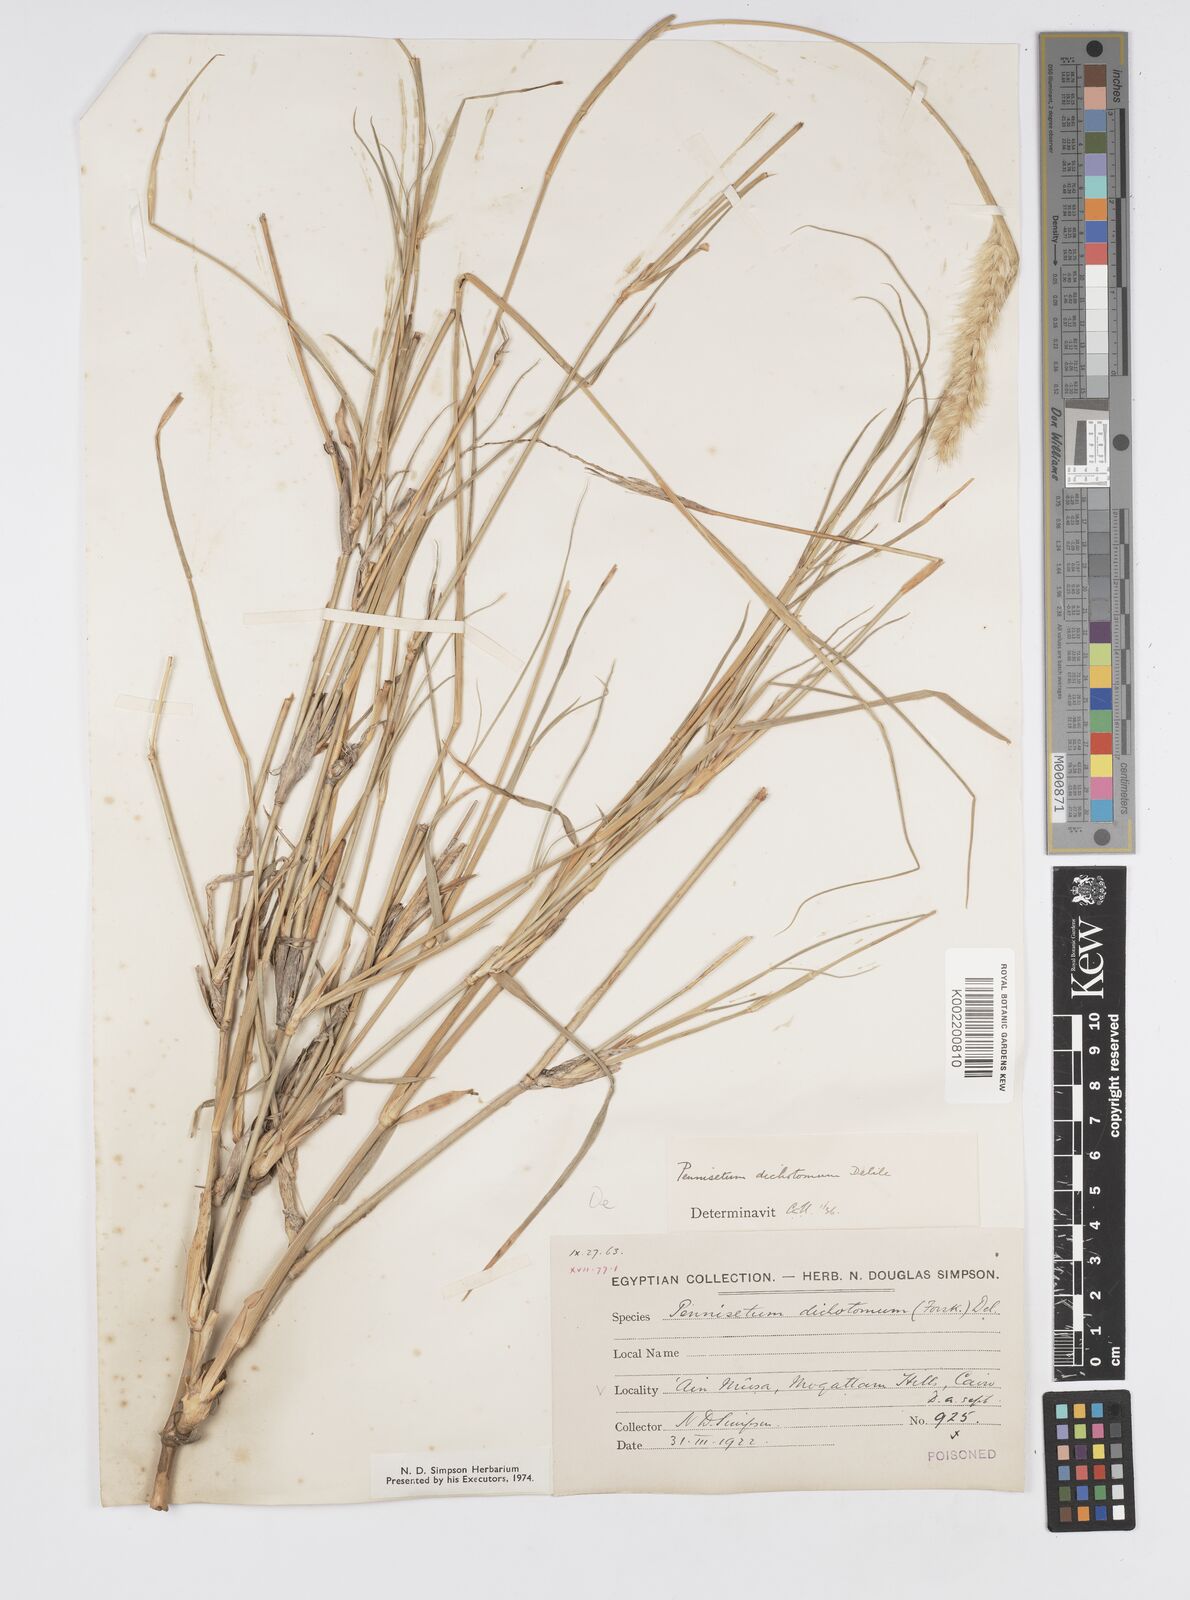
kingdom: Plantae
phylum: Tracheophyta
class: Liliopsida
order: Poales
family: Poaceae
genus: Cenchrus
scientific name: Cenchrus divisus
